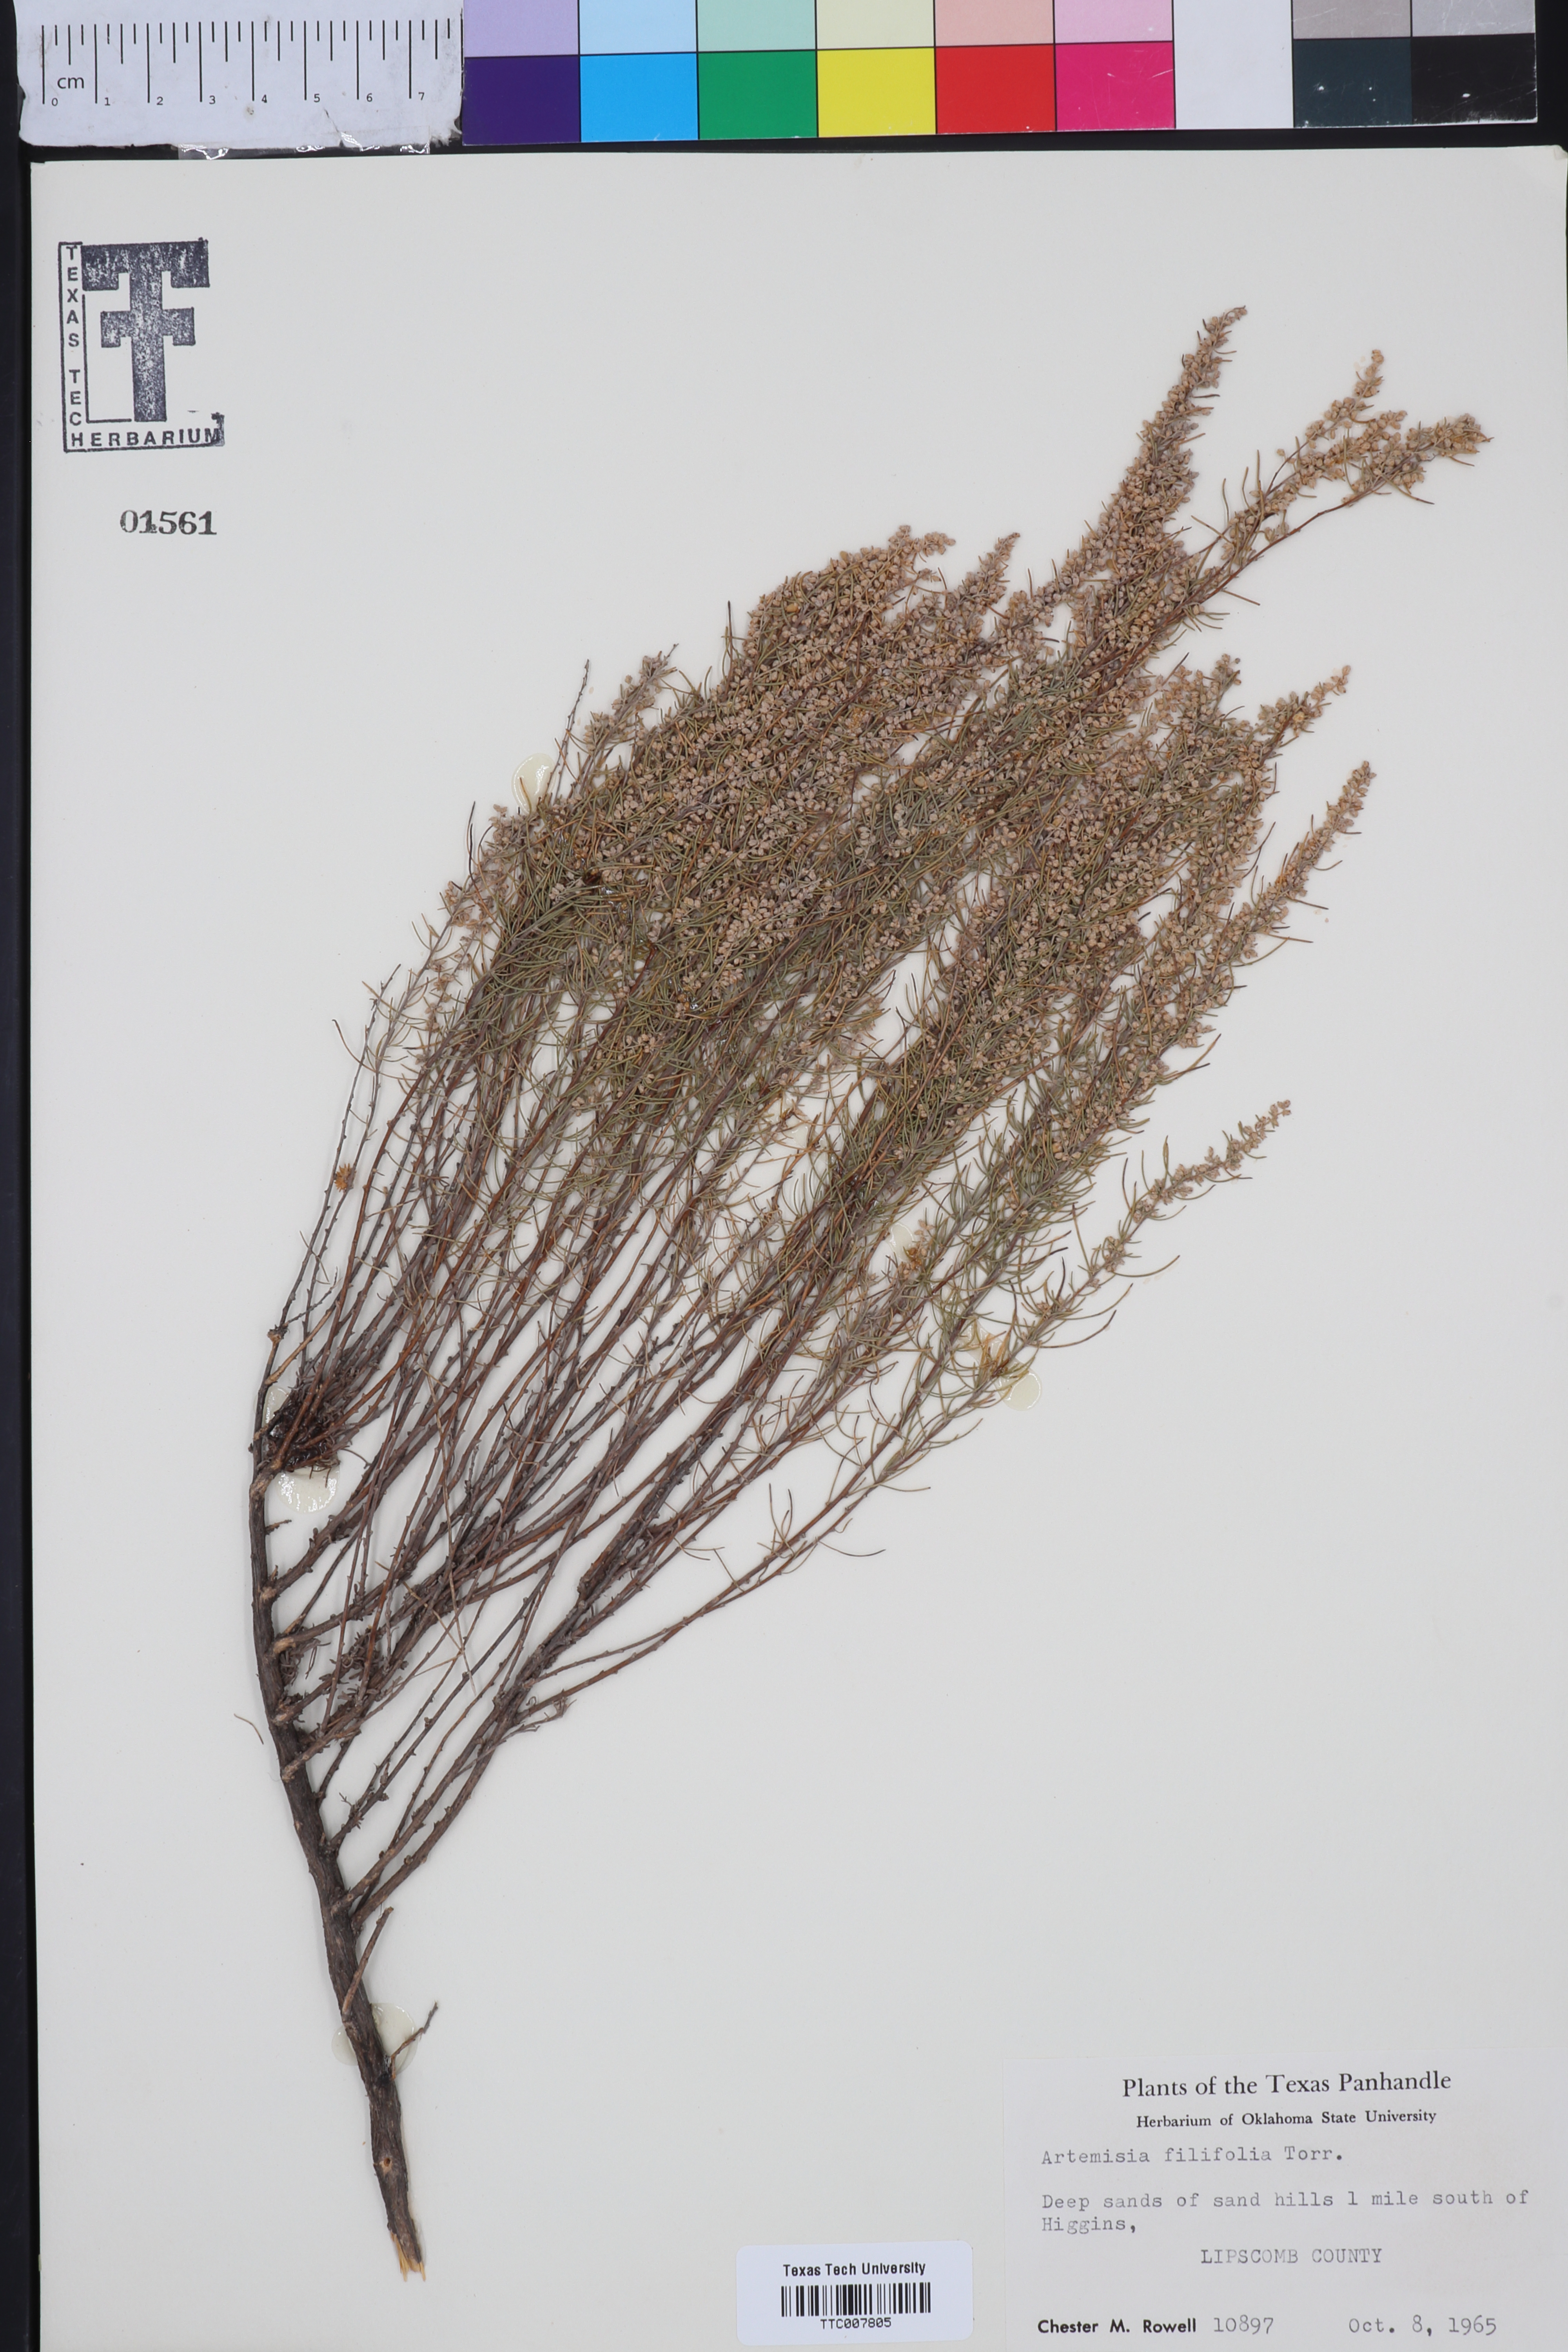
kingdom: Plantae
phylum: Tracheophyta
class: Magnoliopsida
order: Asterales
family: Asteraceae
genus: Artemisia
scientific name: Artemisia filifolia
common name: Sand-sage
